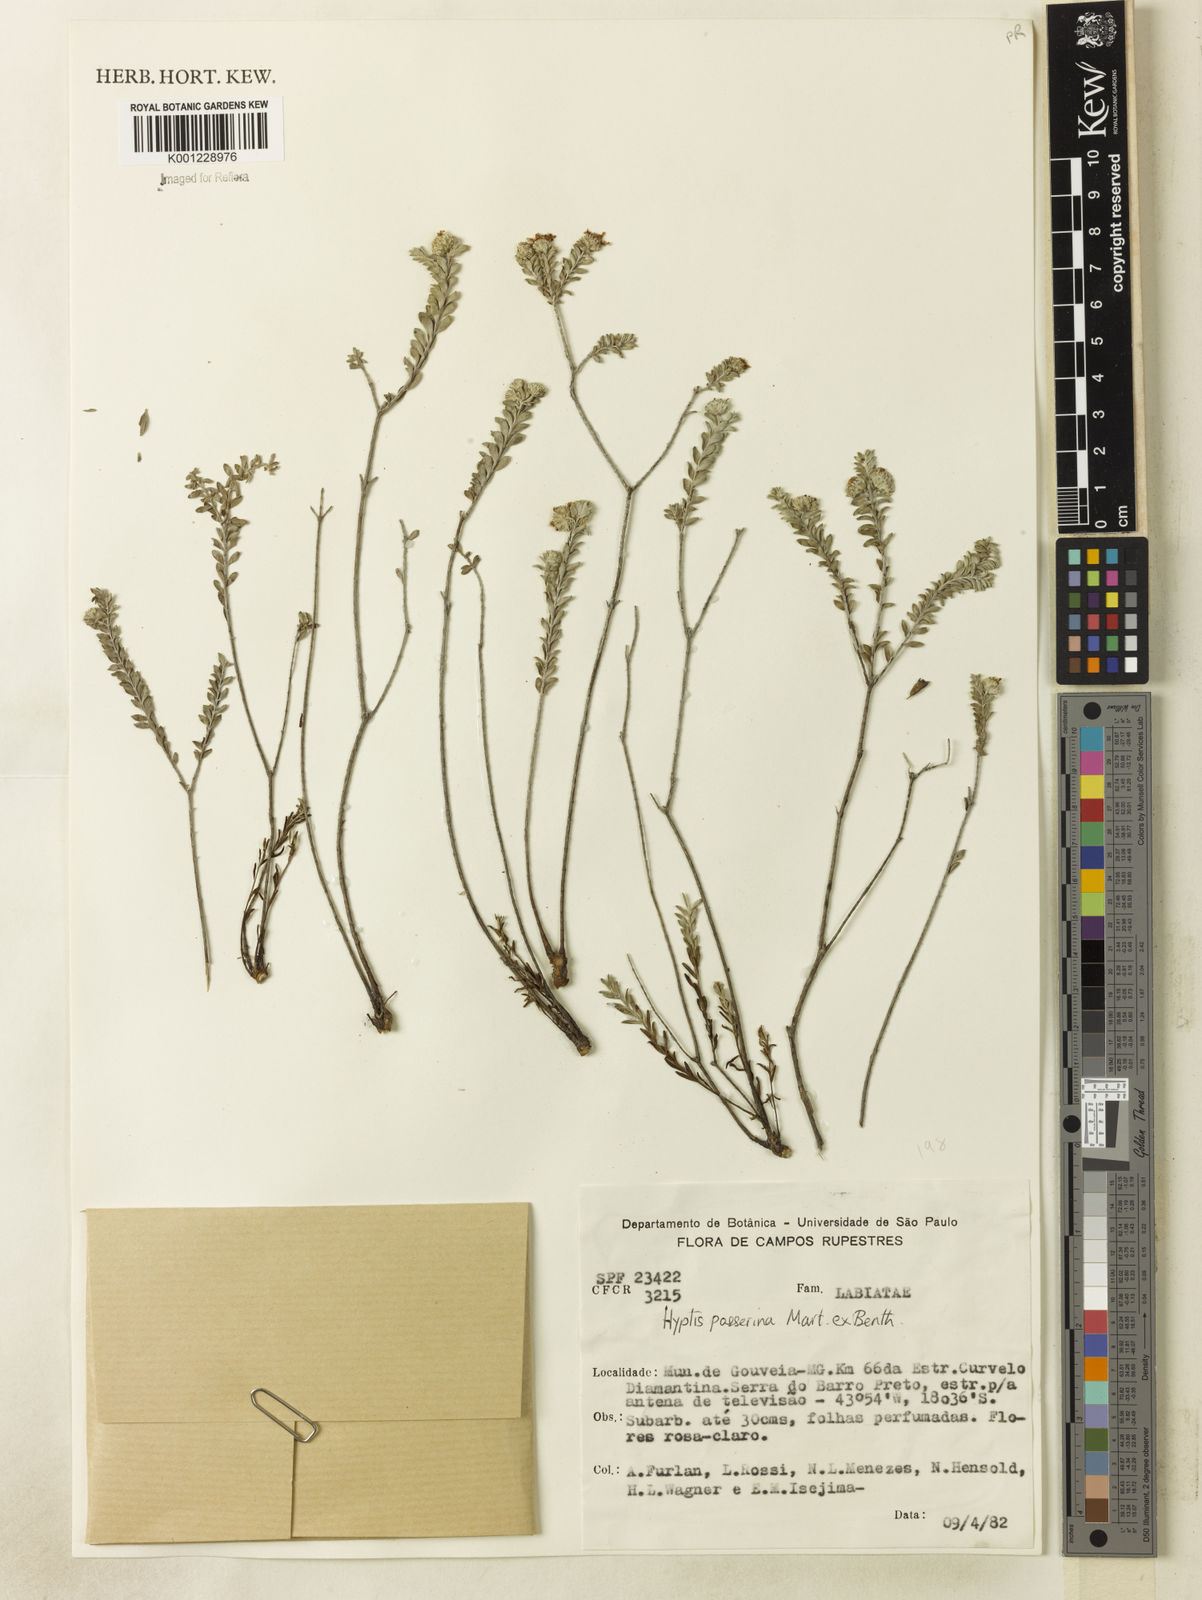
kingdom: Plantae
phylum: Tracheophyta
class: Magnoliopsida
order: Lamiales
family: Lamiaceae
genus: Hyptis
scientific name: Hyptis passerina
